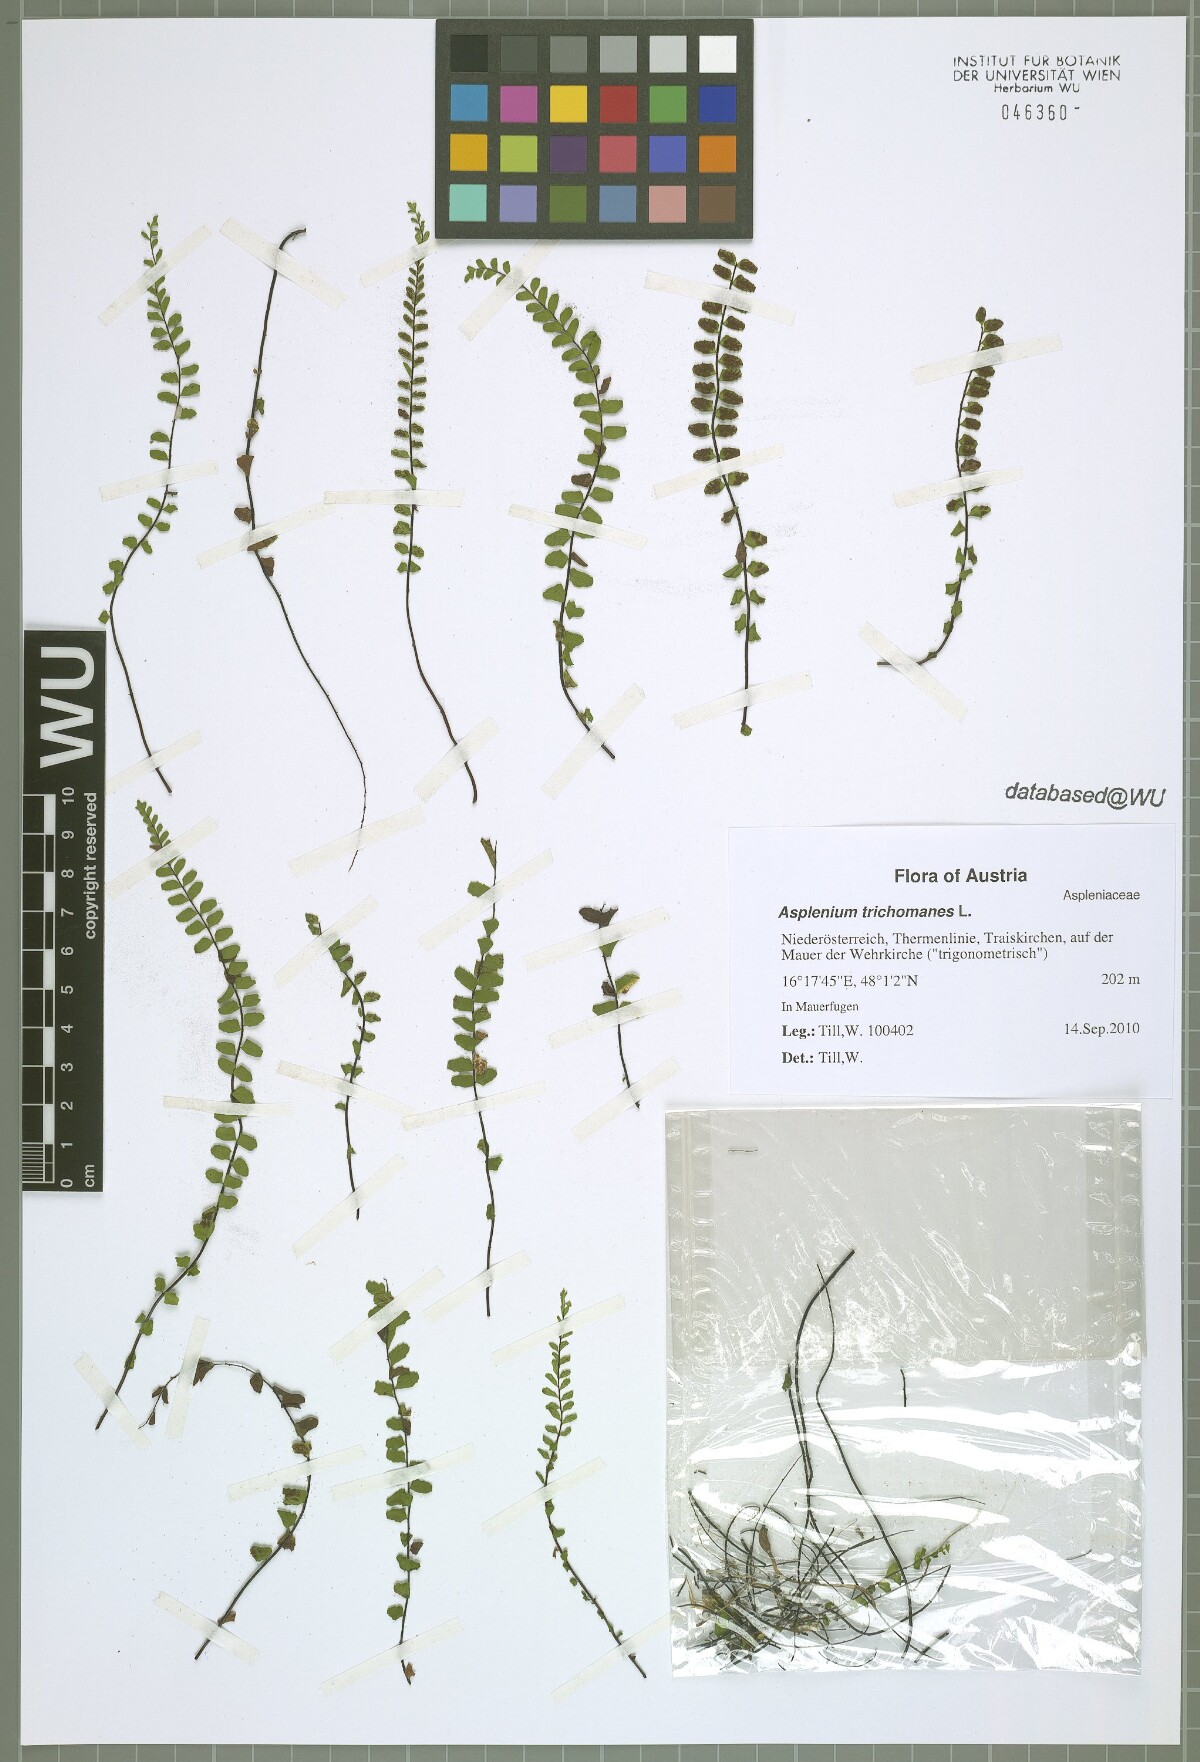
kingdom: Plantae
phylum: Tracheophyta
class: Polypodiopsida
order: Polypodiales
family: Aspleniaceae
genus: Asplenium
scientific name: Asplenium trichomanes
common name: Maidenhair spleenwort
